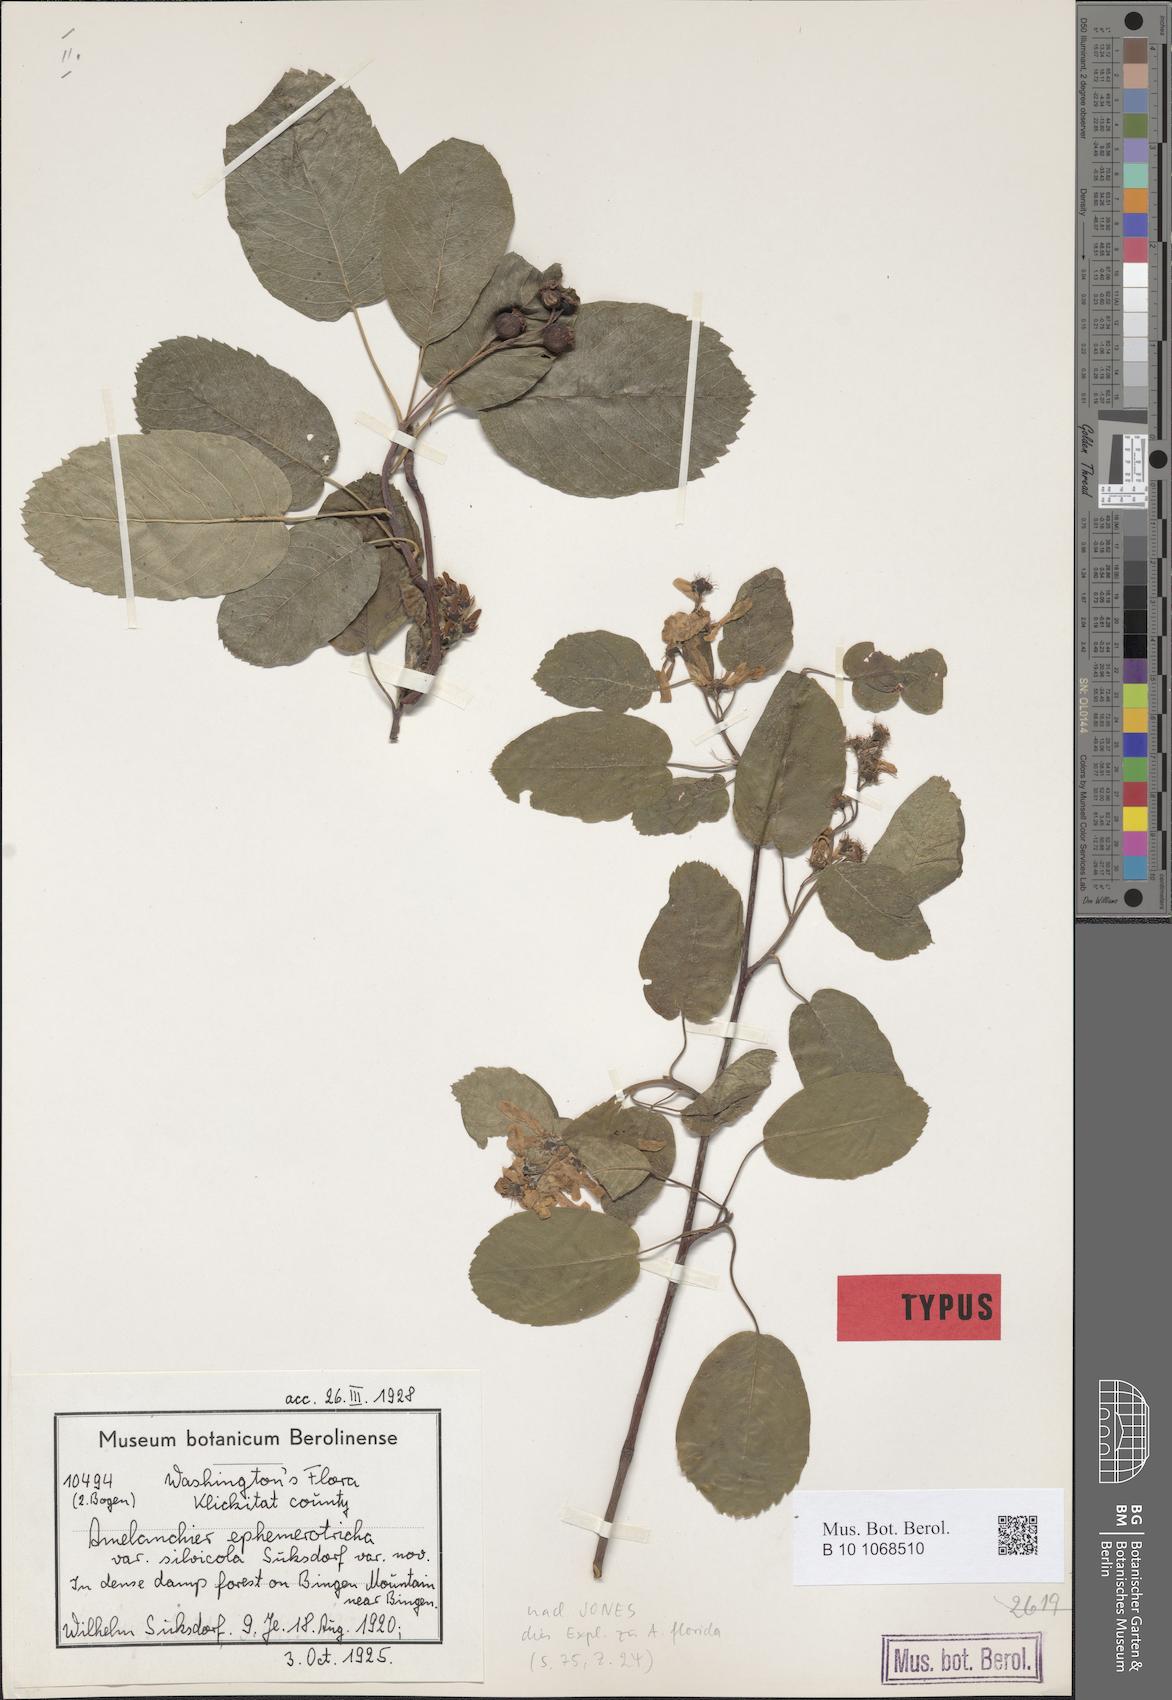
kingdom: Plantae
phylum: Tracheophyta
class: Magnoliopsida
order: Rosales
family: Rosaceae
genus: Amelanchier
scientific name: Amelanchier alnifolia
